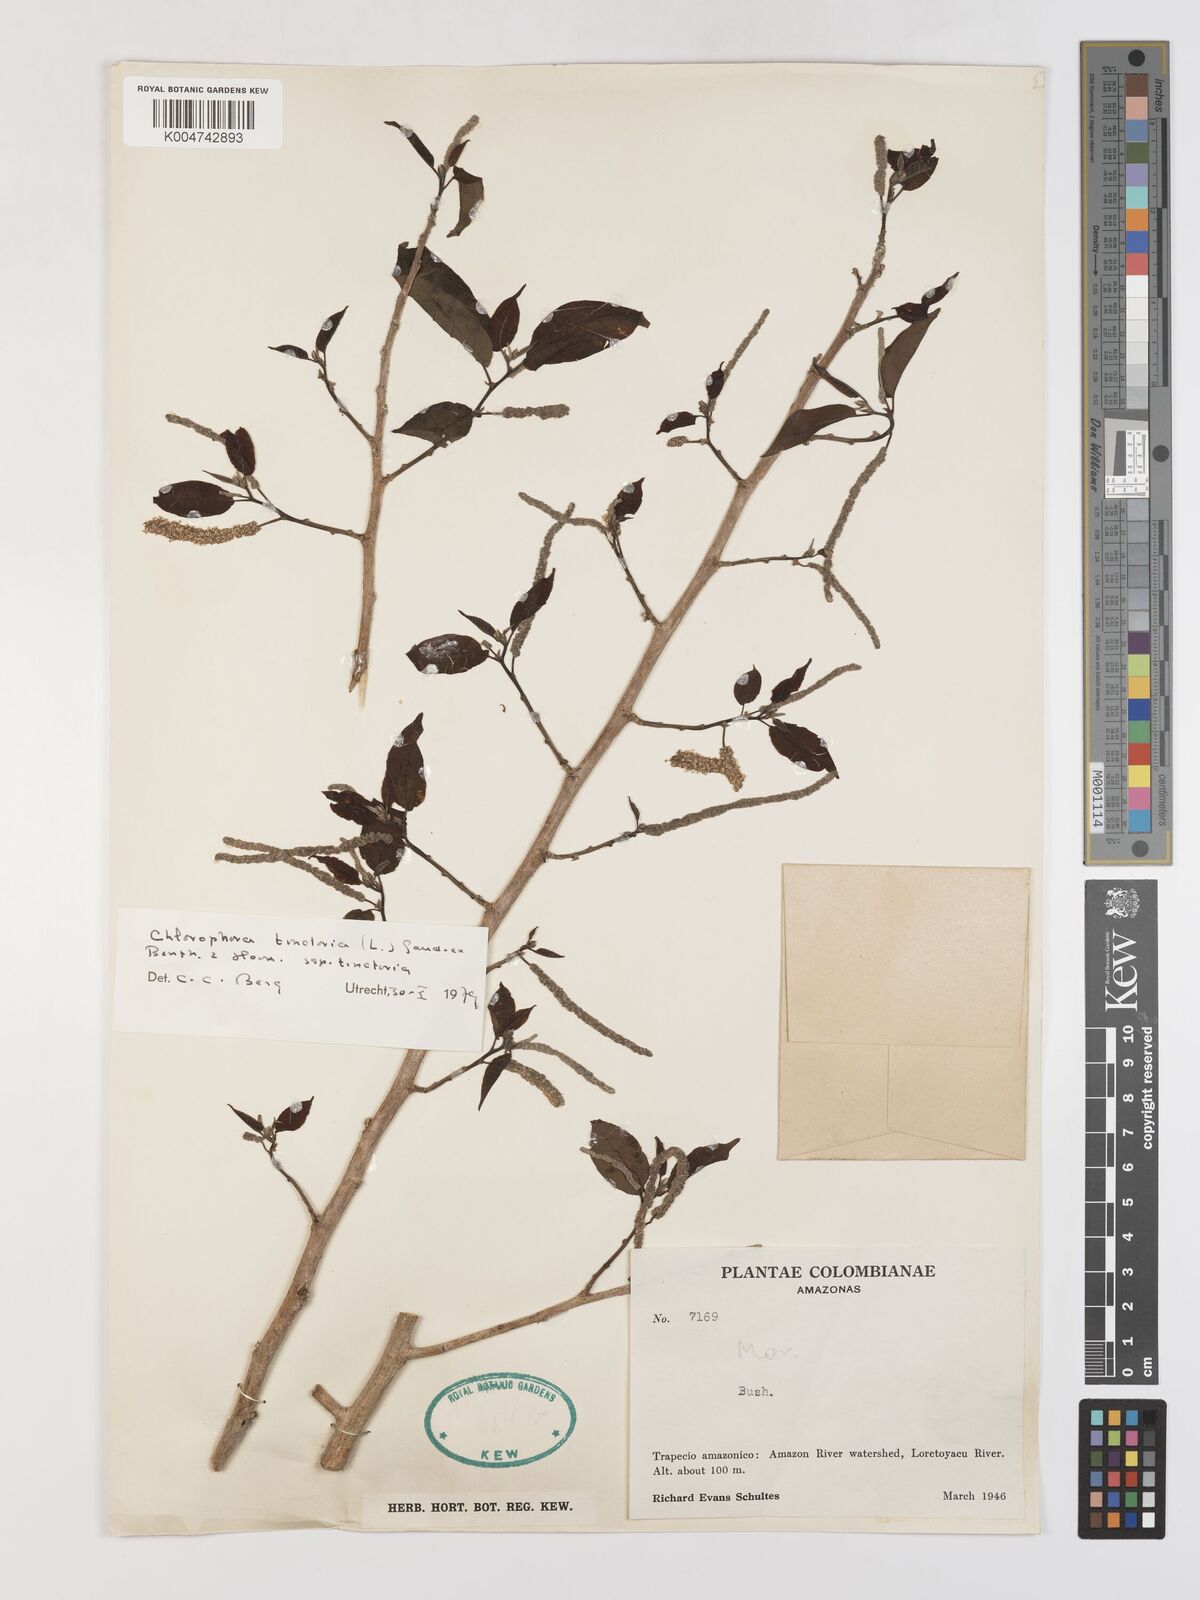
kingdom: Plantae
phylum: Tracheophyta
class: Magnoliopsida
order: Rosales
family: Moraceae
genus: Maclura
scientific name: Maclura tinctoria
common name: Old fustic
